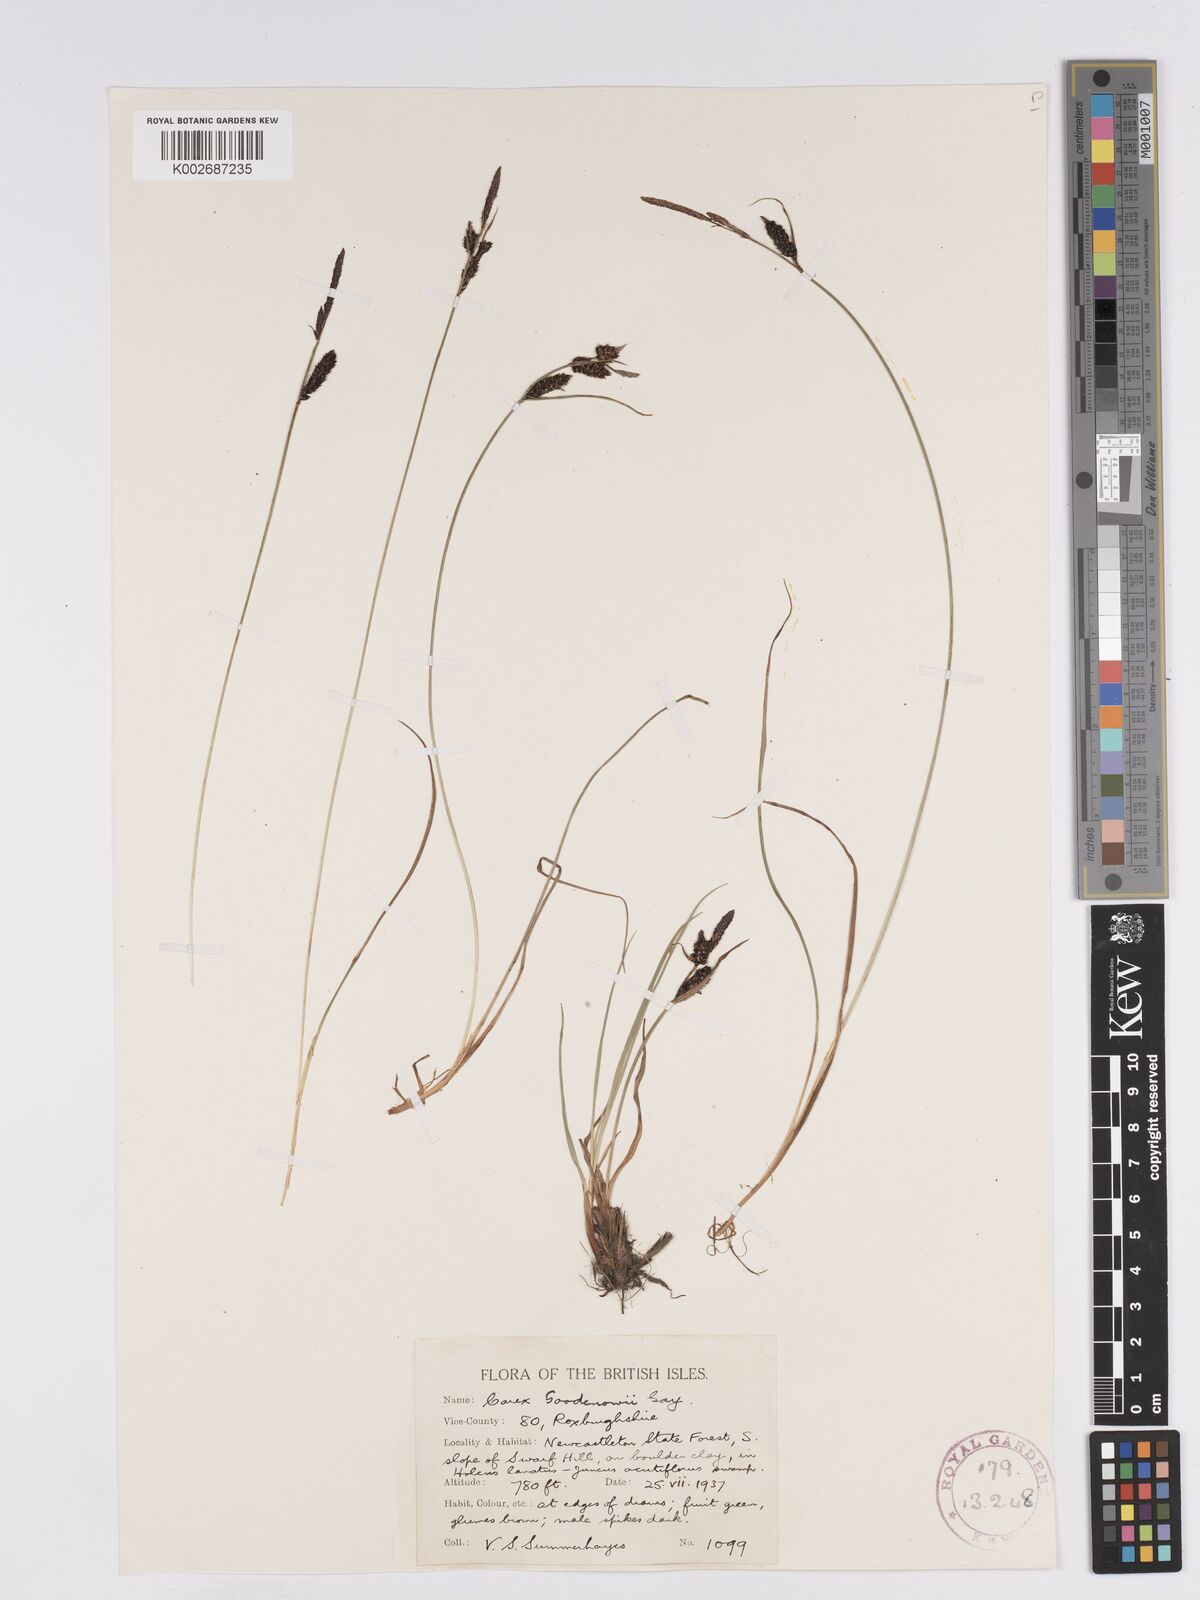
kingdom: Plantae
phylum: Tracheophyta
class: Liliopsida
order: Poales
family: Cyperaceae
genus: Carex
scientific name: Carex nigra
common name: Common sedge
